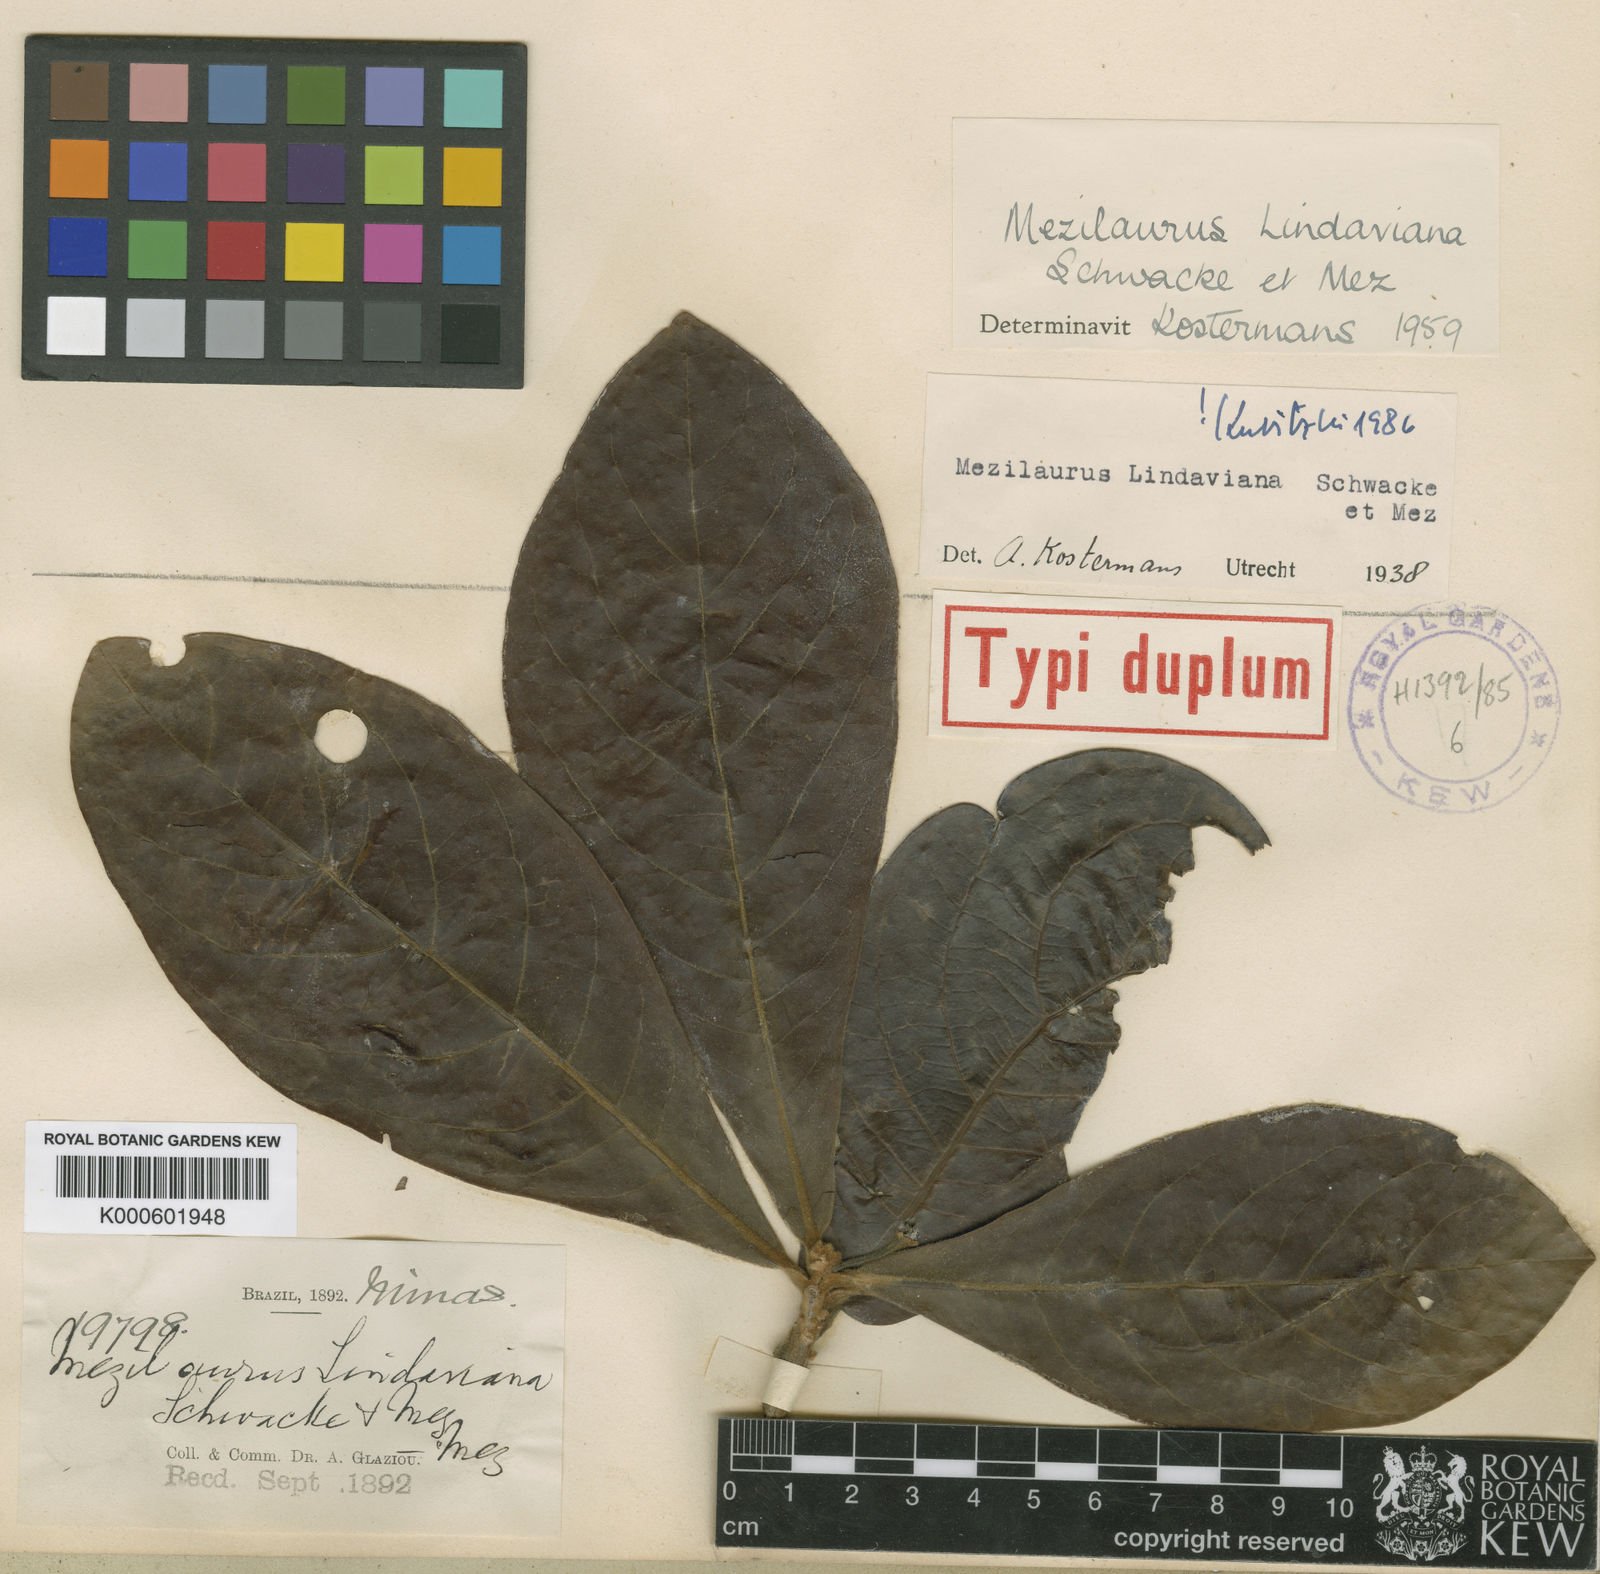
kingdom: Plantae
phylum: Tracheophyta
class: Magnoliopsida
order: Laurales
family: Lauraceae
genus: Mezilaurus
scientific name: Mezilaurus lindaviana
